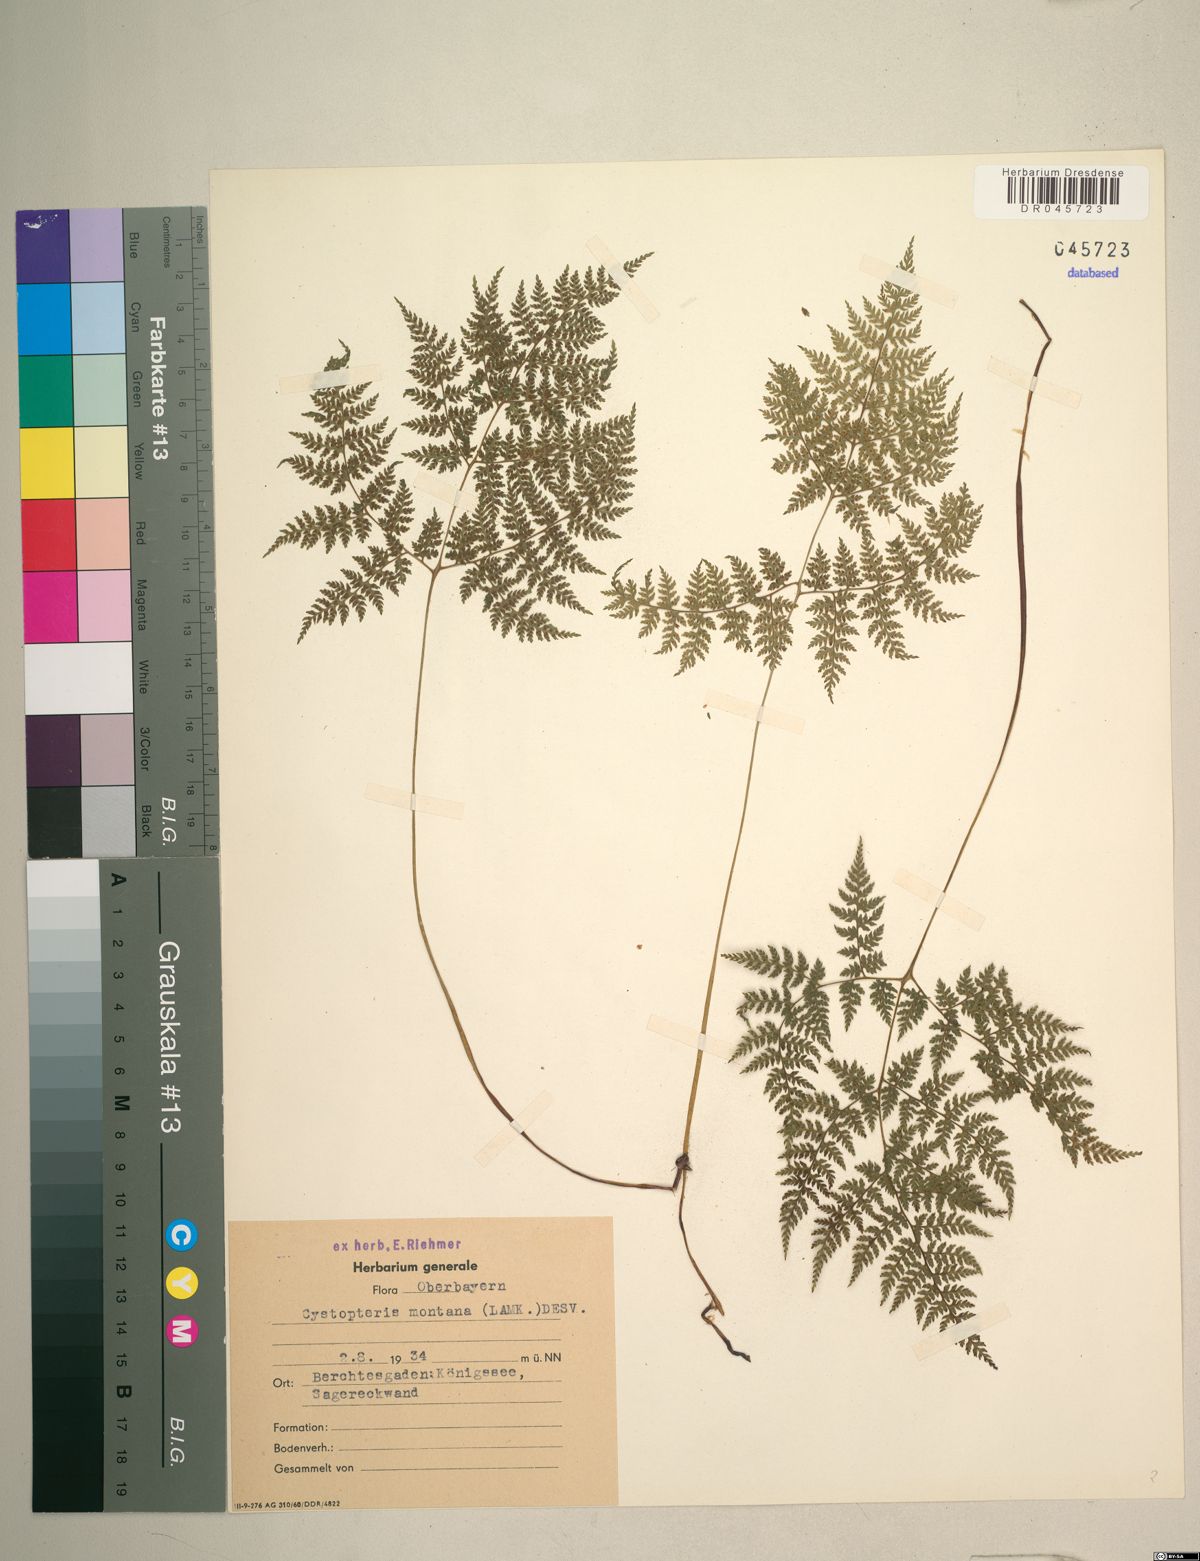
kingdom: Plantae
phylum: Tracheophyta
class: Polypodiopsida
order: Polypodiales
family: Cystopteridaceae
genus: Cystopteris
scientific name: Cystopteris montana
